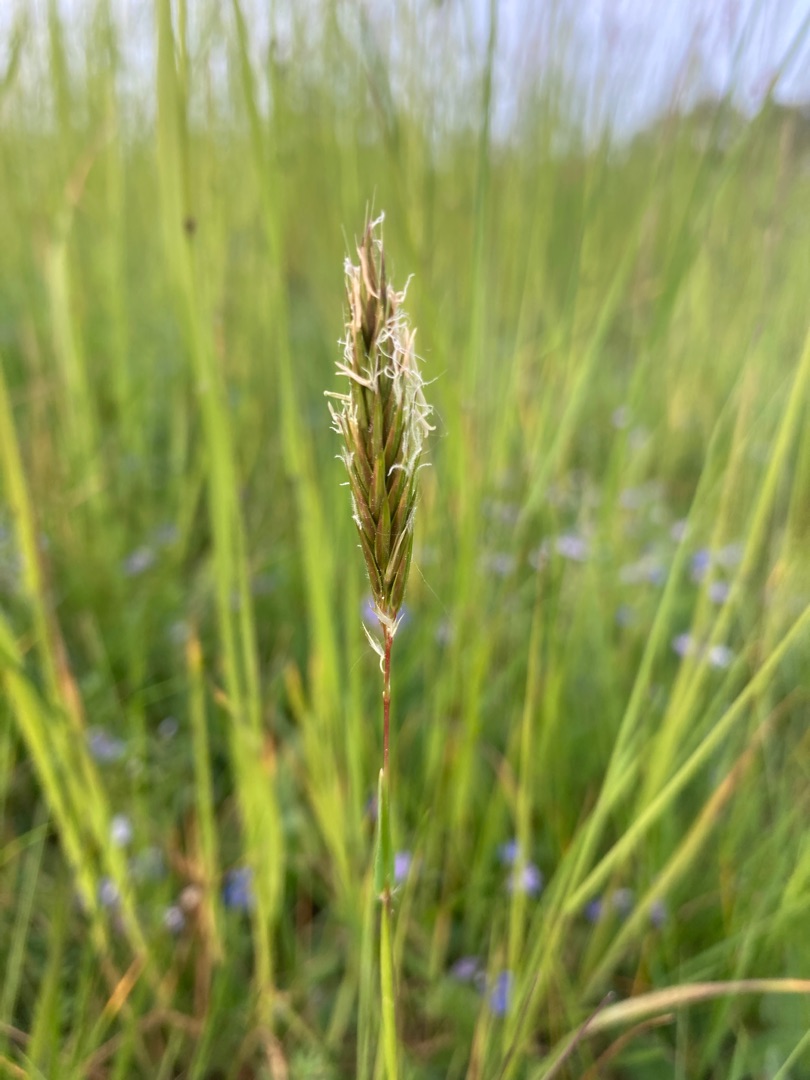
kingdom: Plantae
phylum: Tracheophyta
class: Liliopsida
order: Poales
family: Poaceae
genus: Anthoxanthum
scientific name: Anthoxanthum odoratum
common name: Vellugtende gulaks
